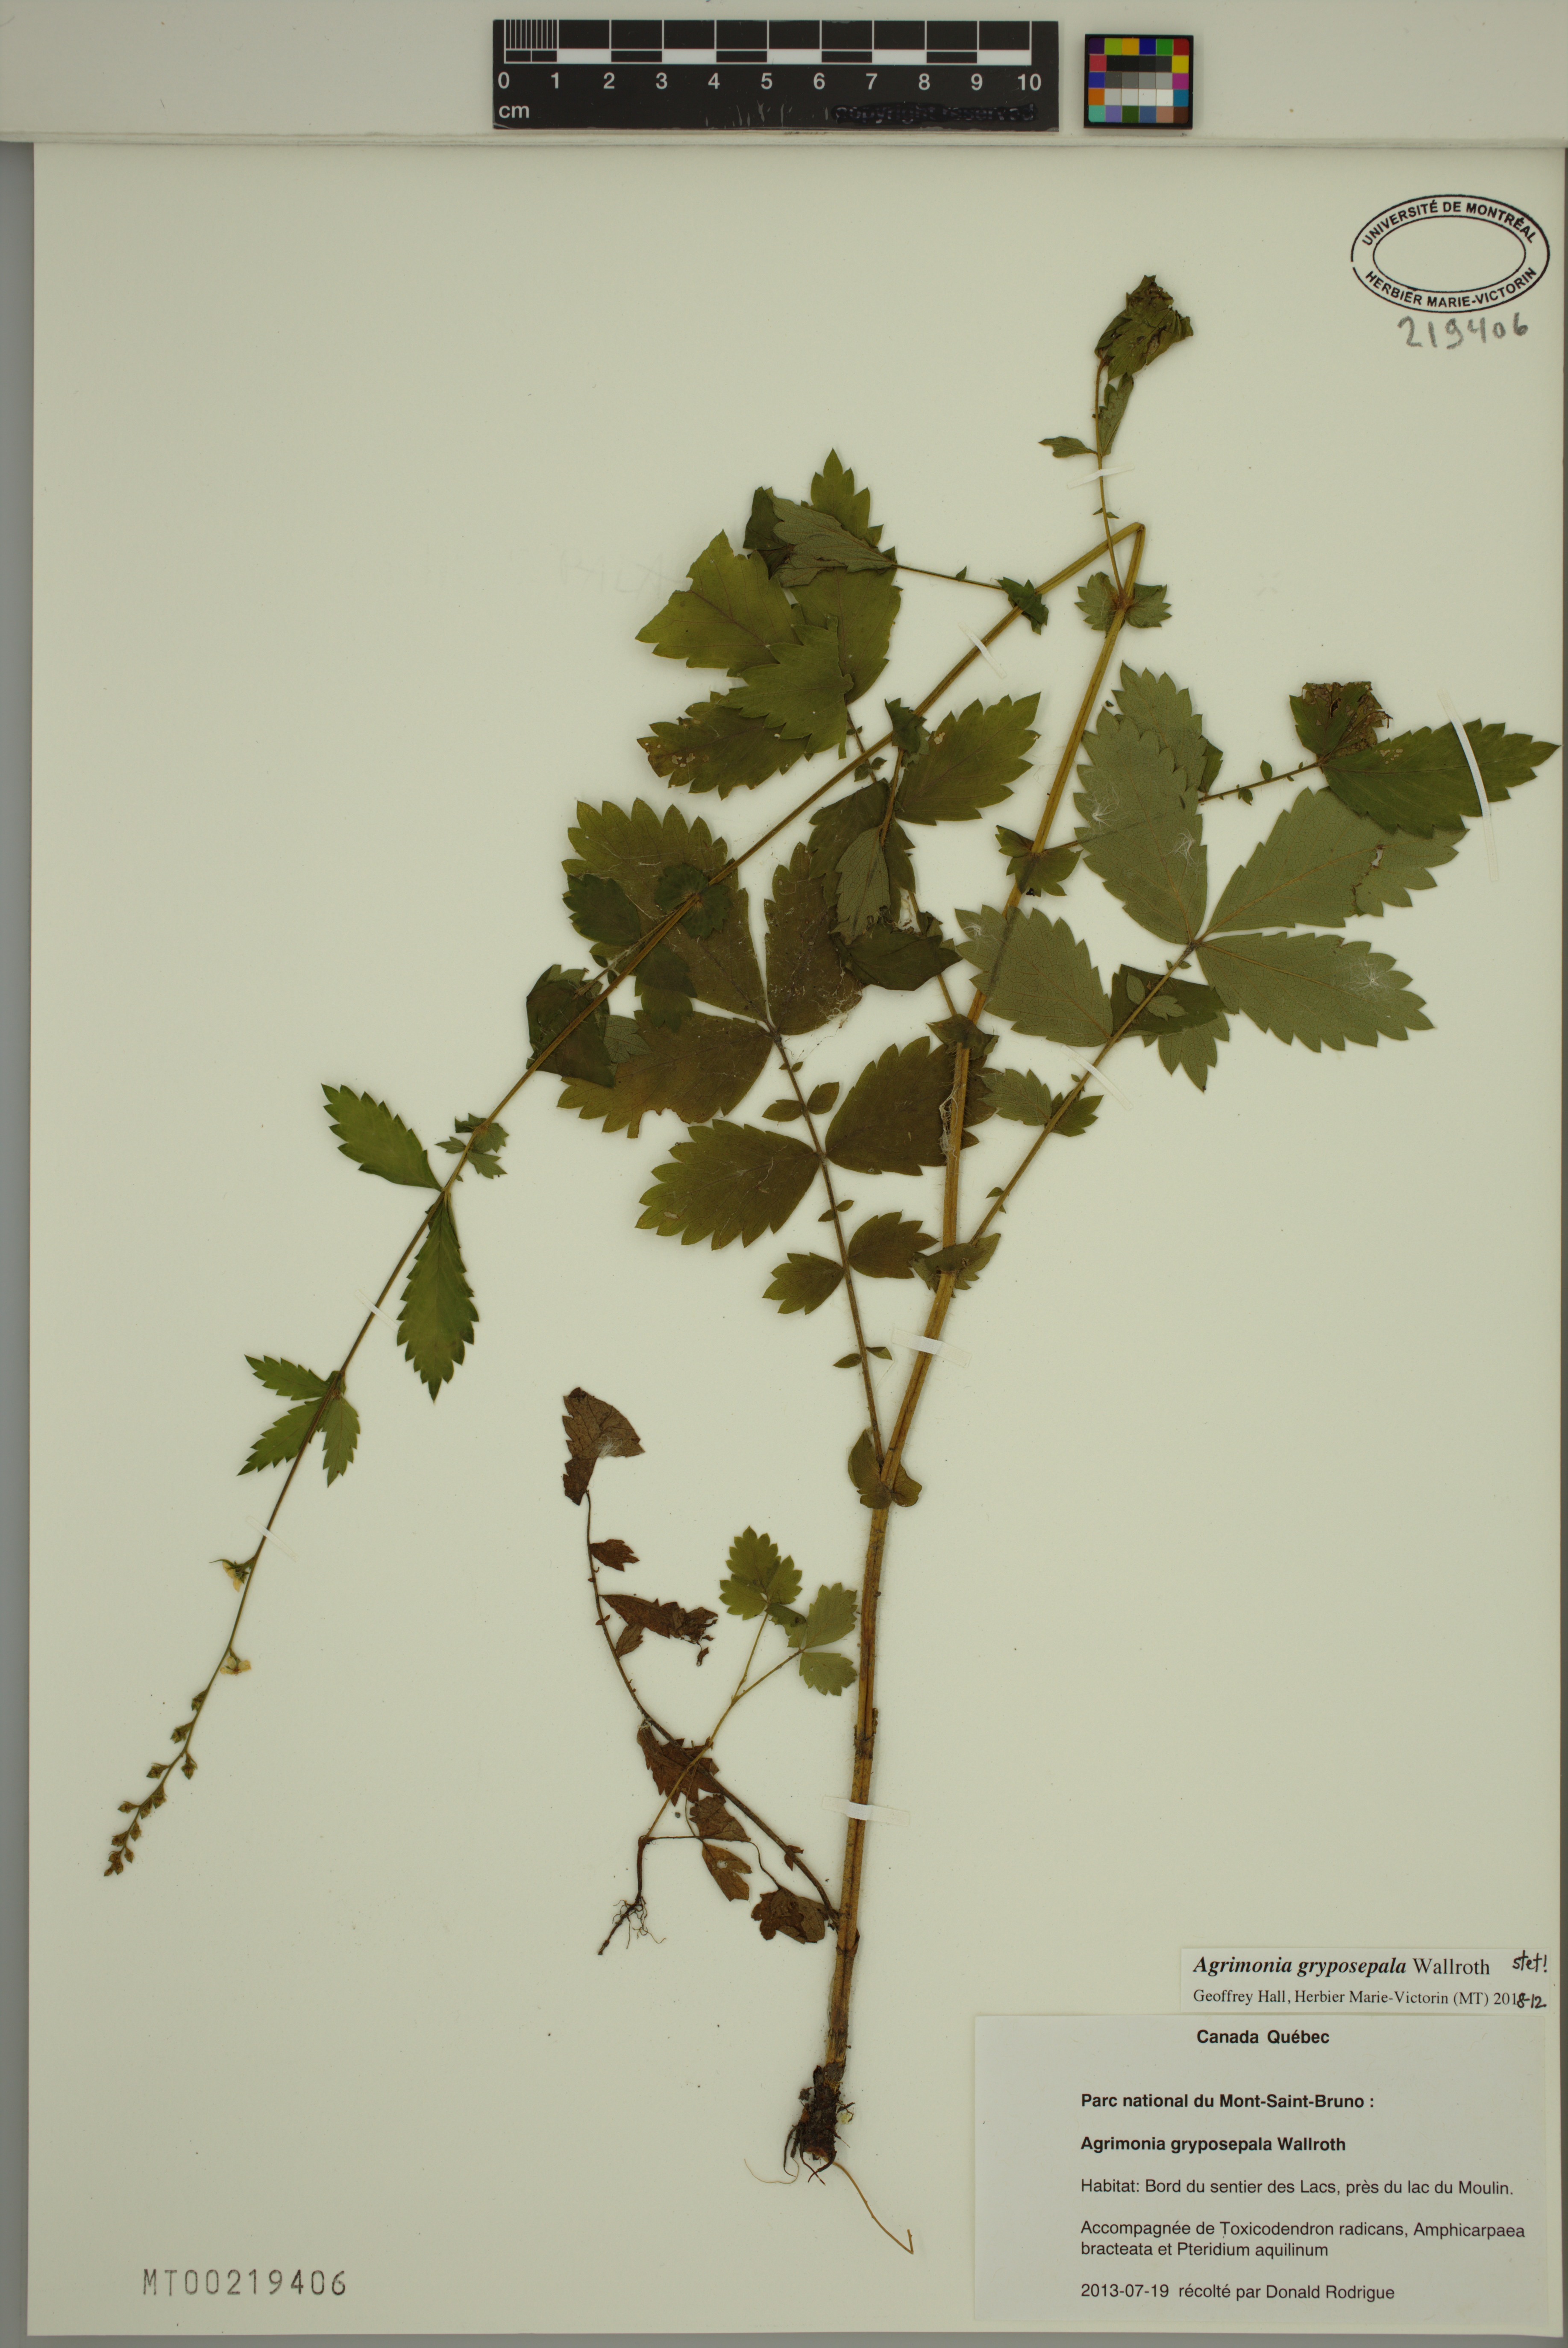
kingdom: Plantae
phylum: Tracheophyta
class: Magnoliopsida
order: Rosales
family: Rosaceae
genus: Agrimonia
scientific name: Agrimonia gryposepala
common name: Common agrimony
